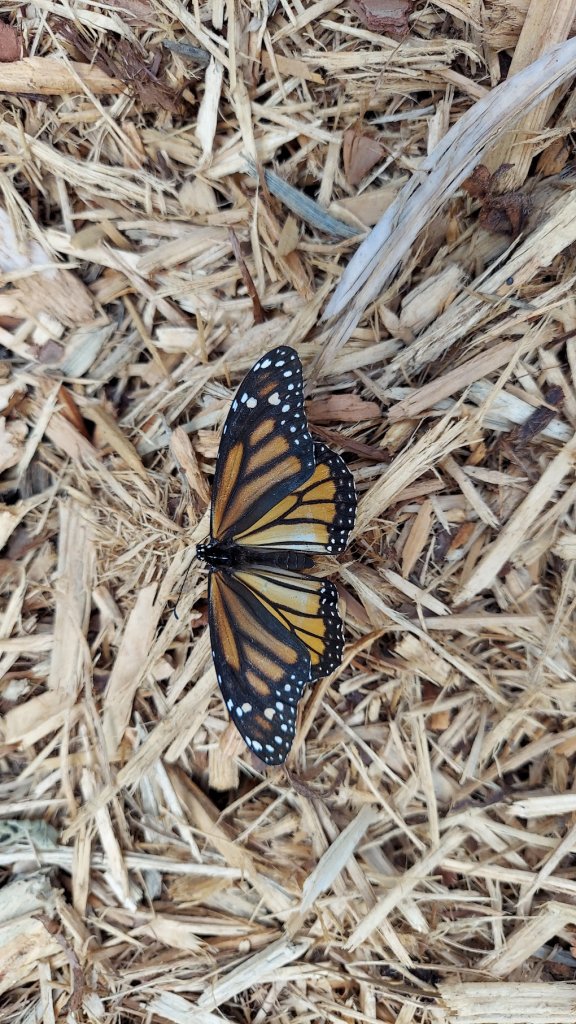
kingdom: Animalia
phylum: Arthropoda
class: Insecta
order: Lepidoptera
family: Nymphalidae
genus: Danaus
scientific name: Danaus plexippus
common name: Monarch
